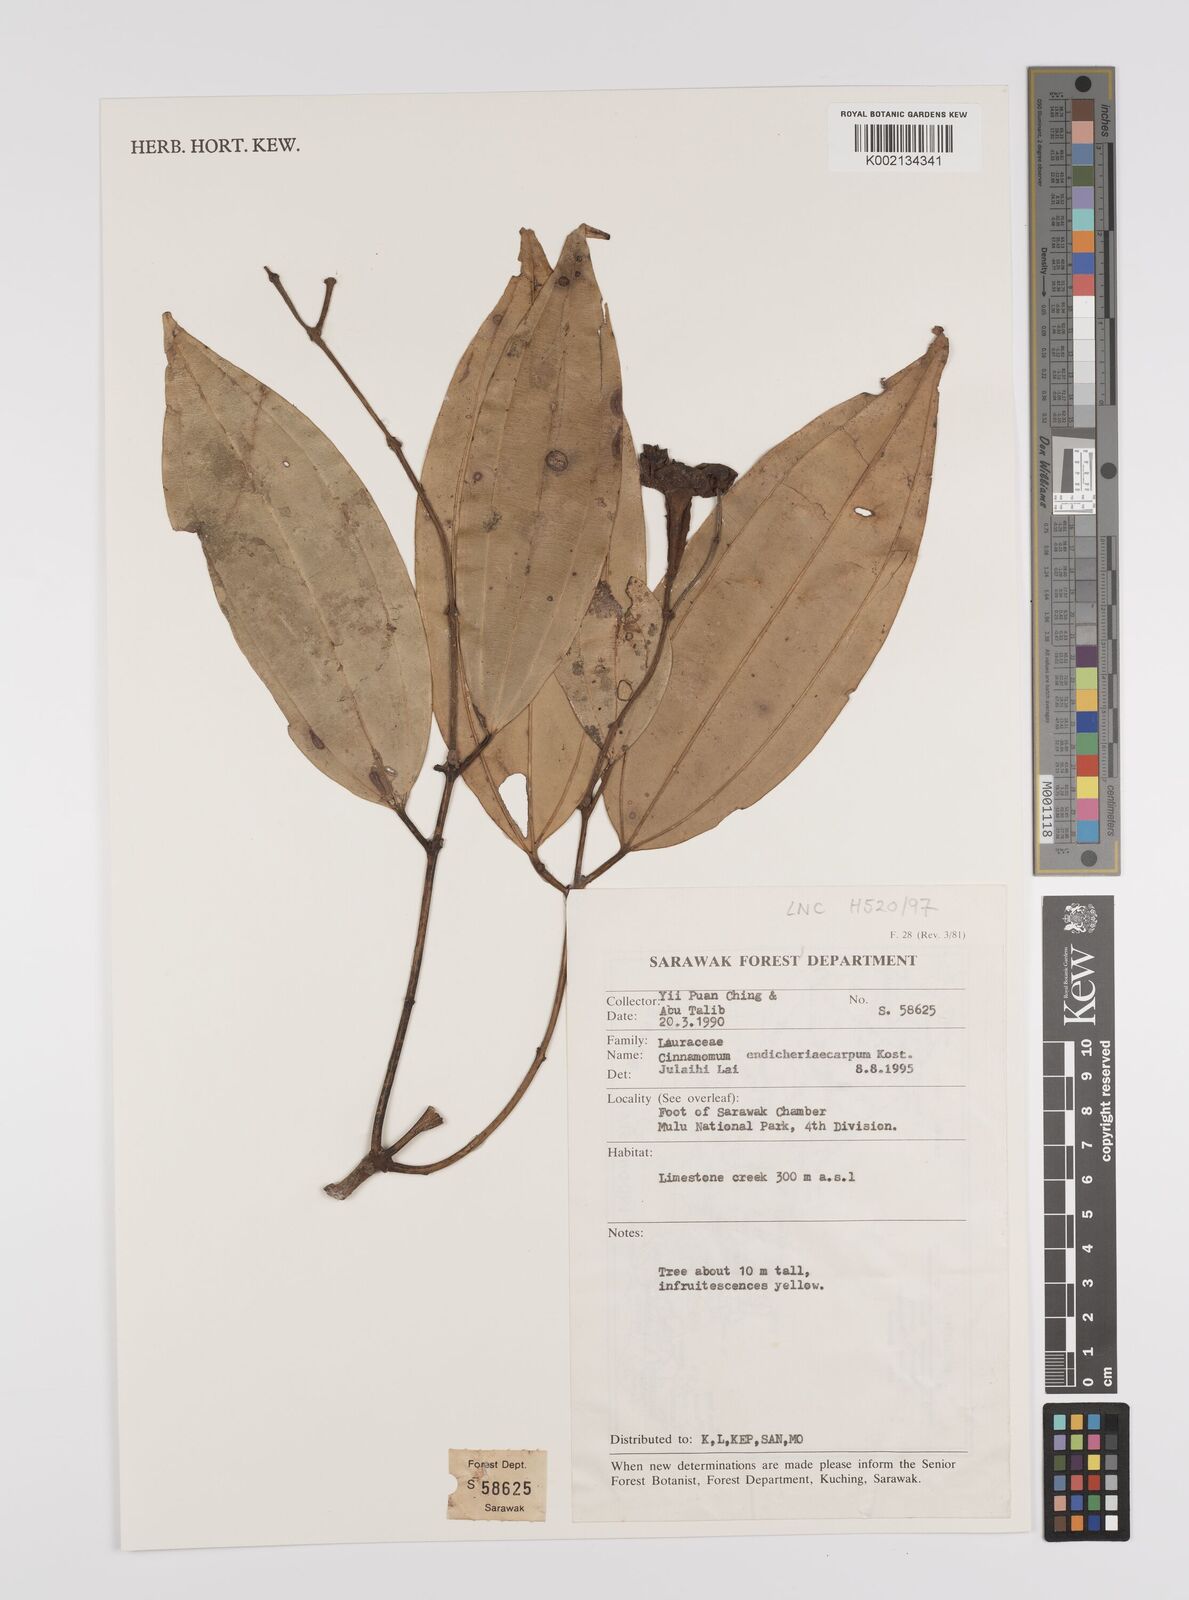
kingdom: Plantae
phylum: Tracheophyta
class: Magnoliopsida
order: Laurales
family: Lauraceae
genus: Cinnamomum
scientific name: Cinnamomum crassinervium
